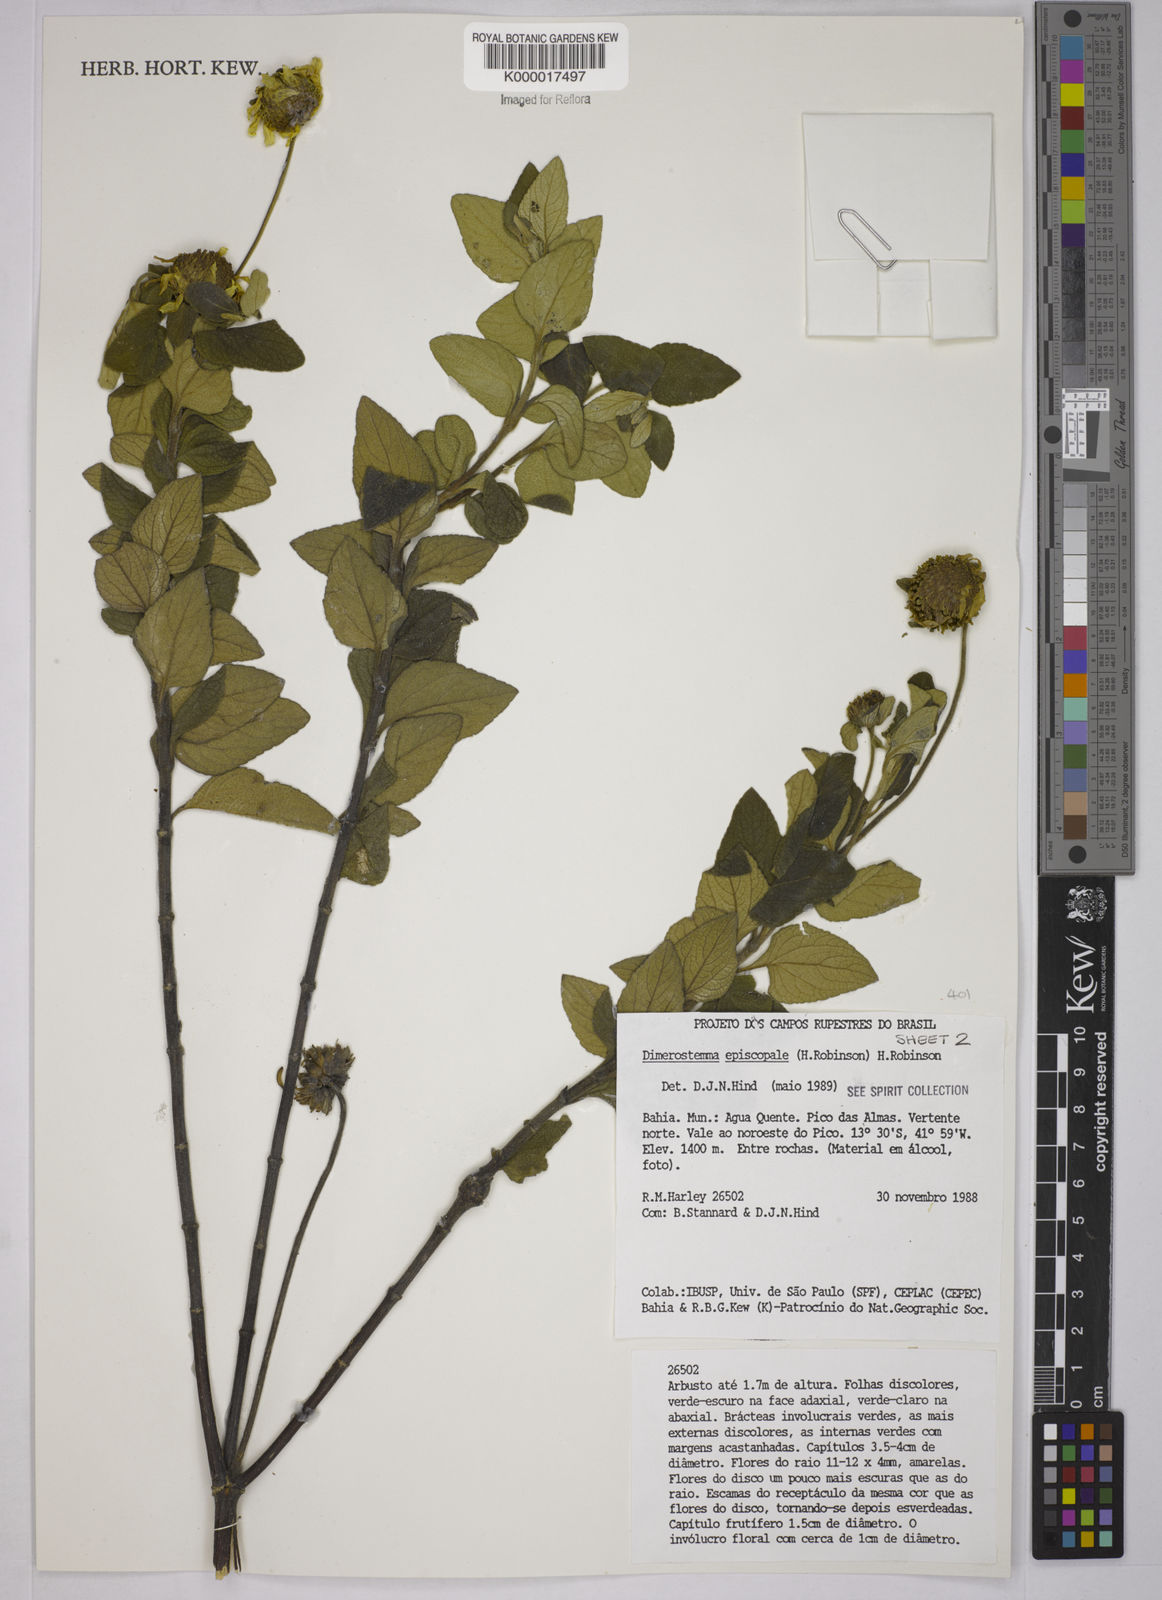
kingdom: Plantae
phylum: Tracheophyta
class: Magnoliopsida
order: Asterales
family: Asteraceae
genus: Dimerostemma
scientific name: Dimerostemma episcopale
